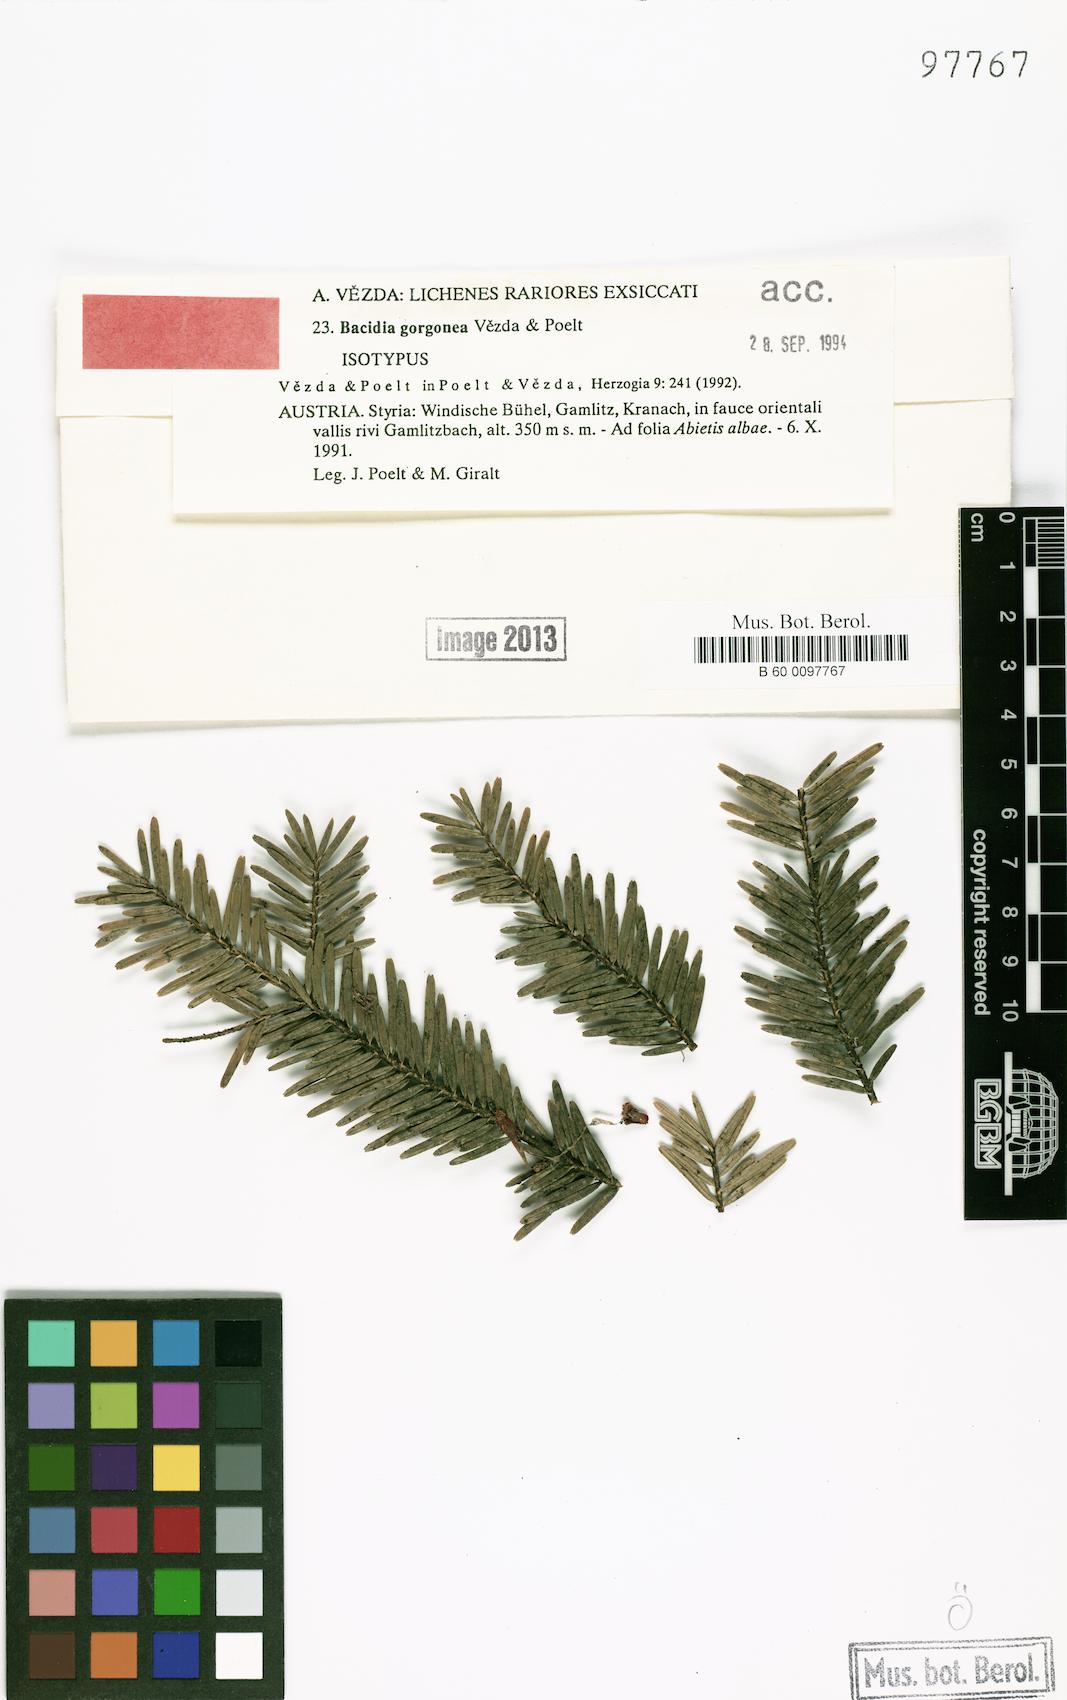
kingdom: Fungi
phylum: Ascomycota
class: Lecanoromycetes
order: Lecanorales
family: Ramalinaceae
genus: Bacidia
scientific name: Bacidia gorgonea
